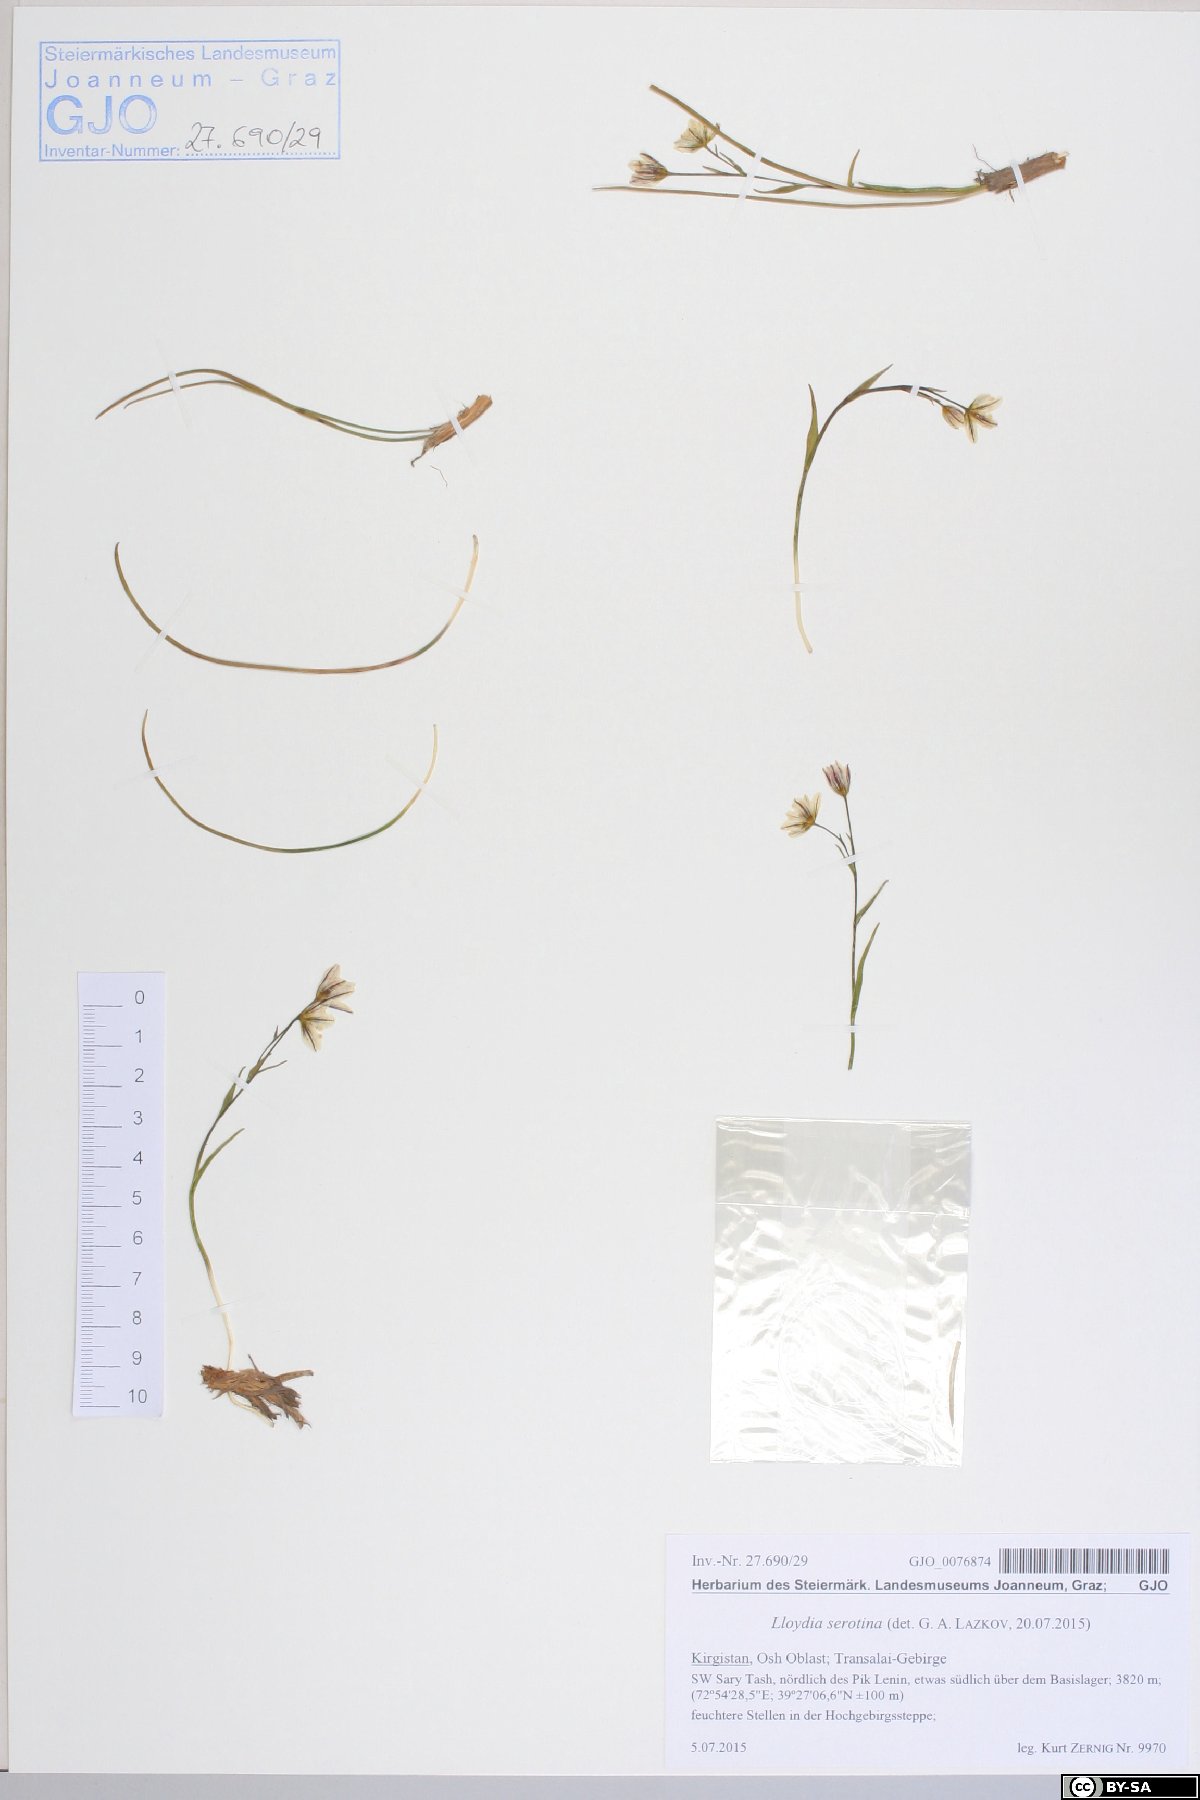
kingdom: Plantae
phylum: Tracheophyta
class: Liliopsida
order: Liliales
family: Liliaceae
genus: Gagea
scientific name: Gagea serotina
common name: Snowdon lily
